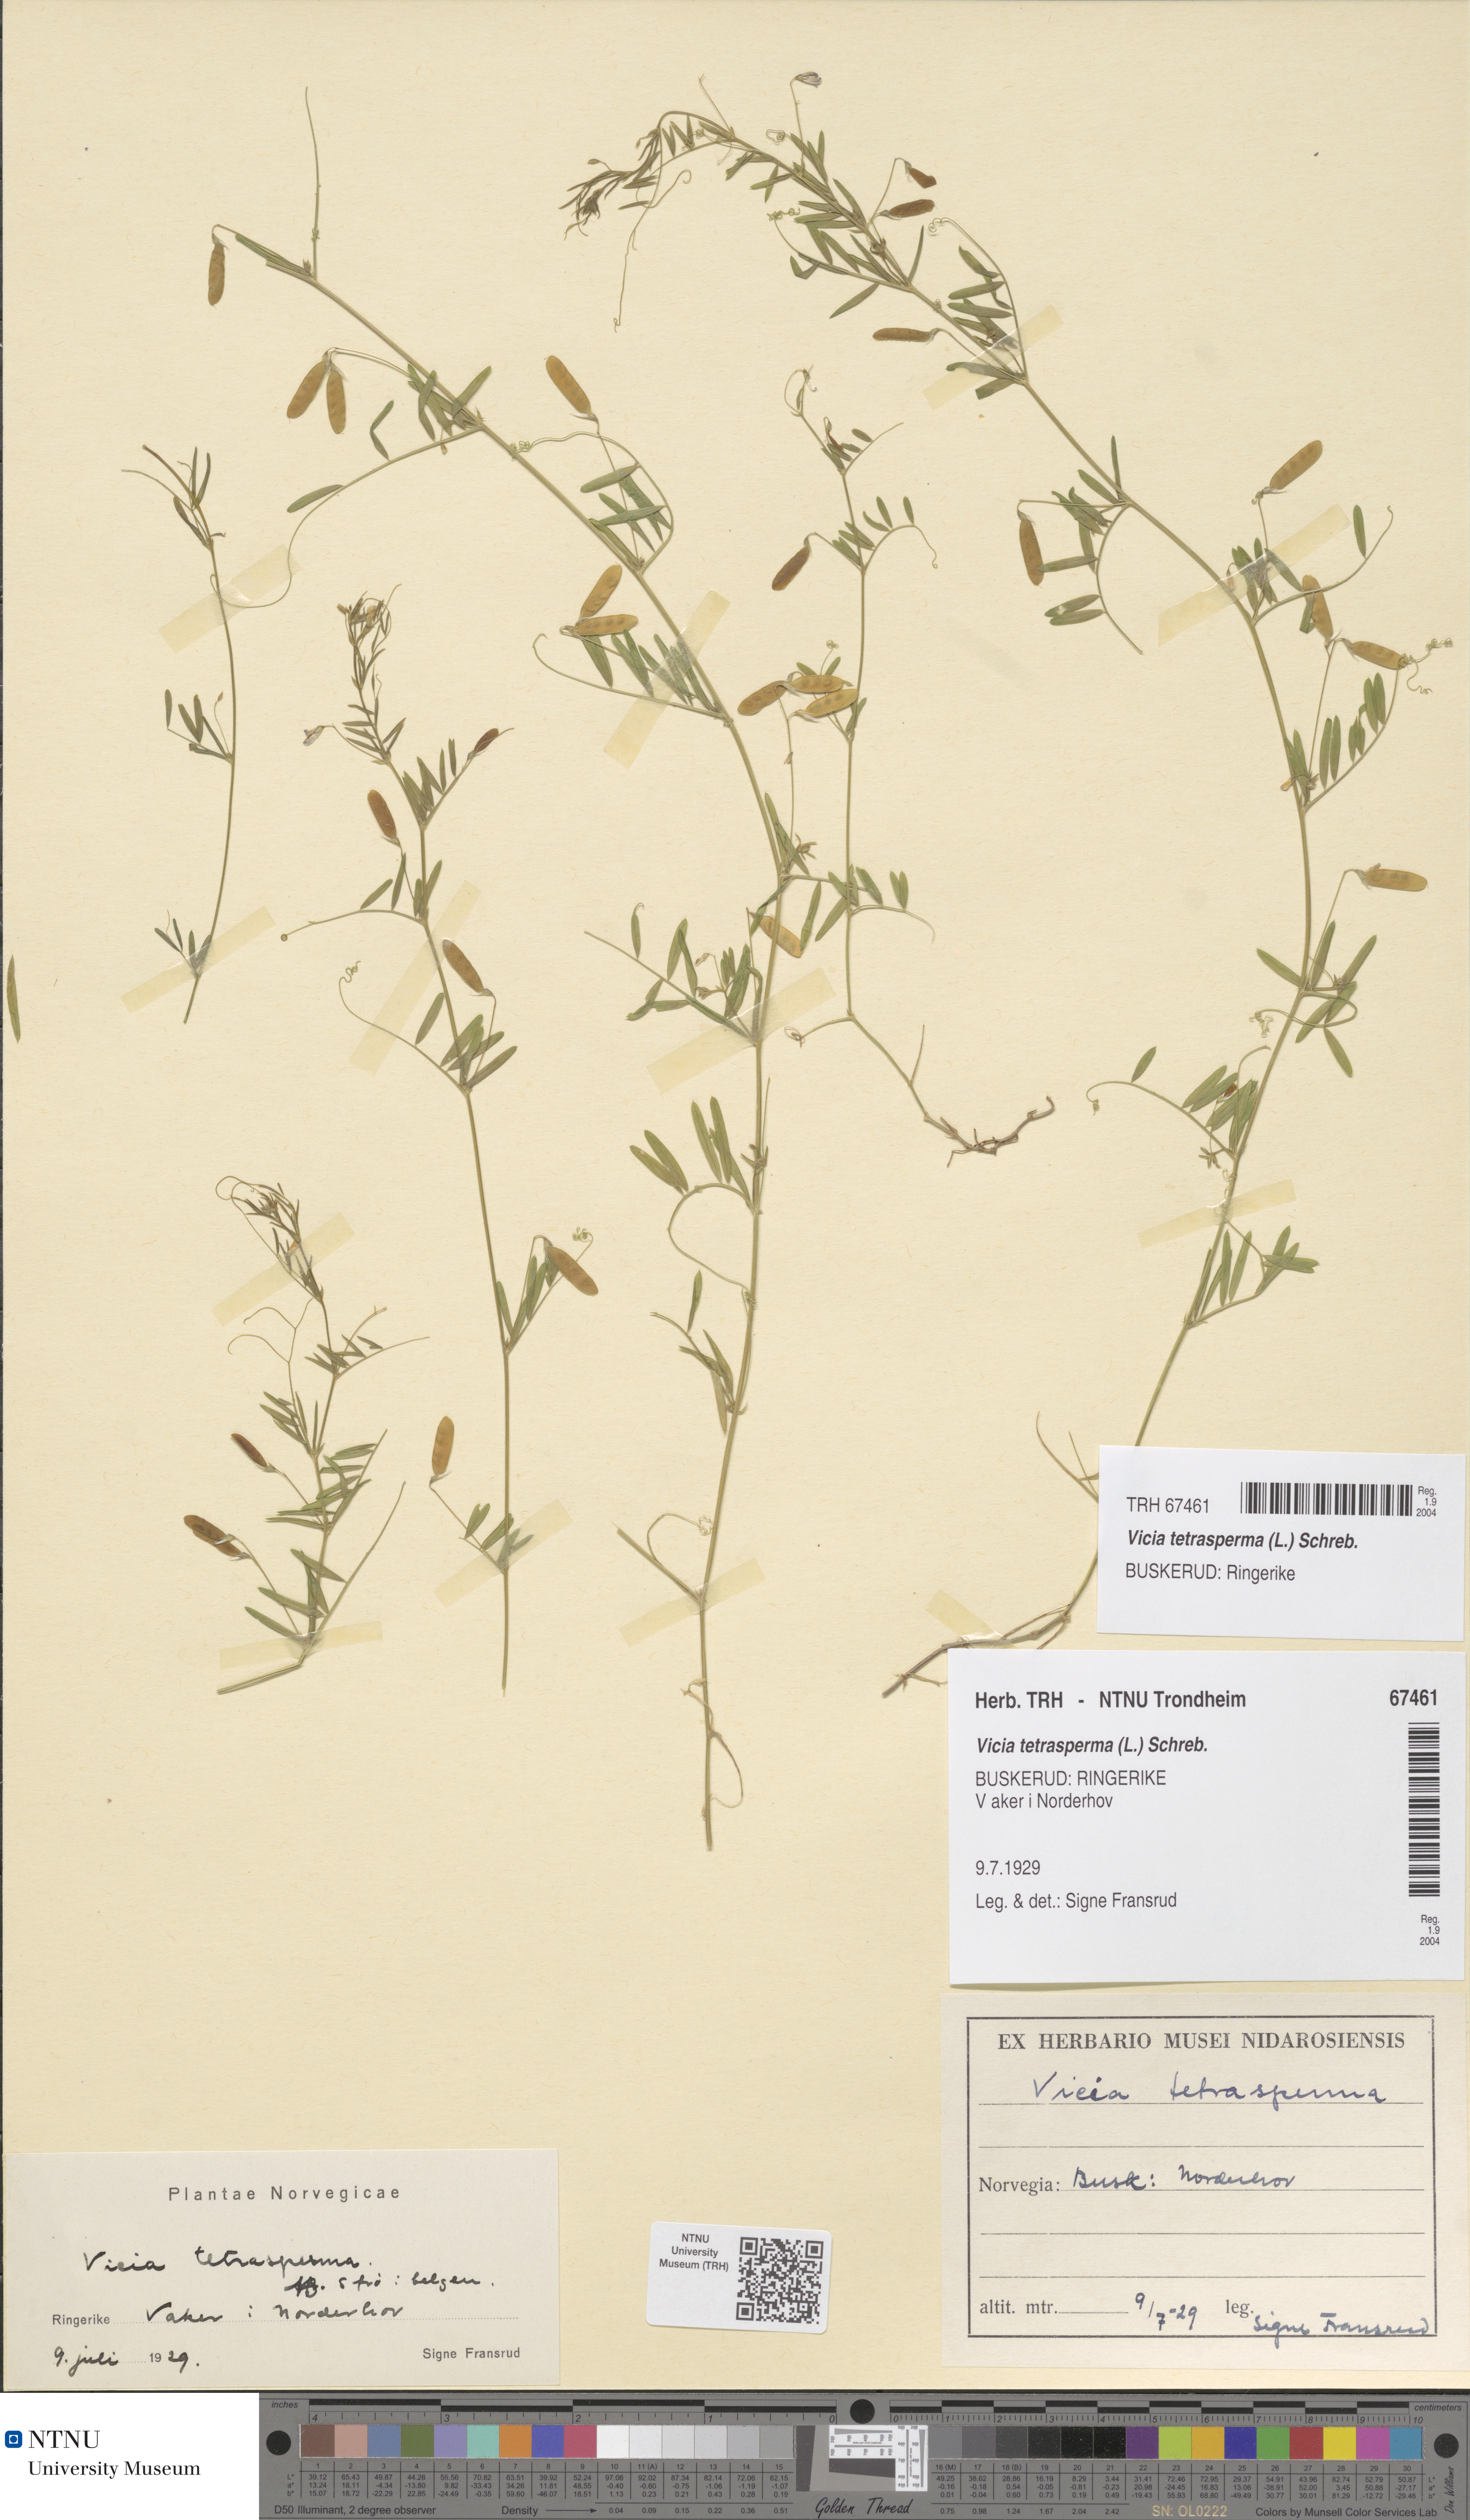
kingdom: Plantae
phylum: Tracheophyta
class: Magnoliopsida
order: Fabales
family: Fabaceae
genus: Vicia
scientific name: Vicia tetrasperma
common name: Smooth tare
